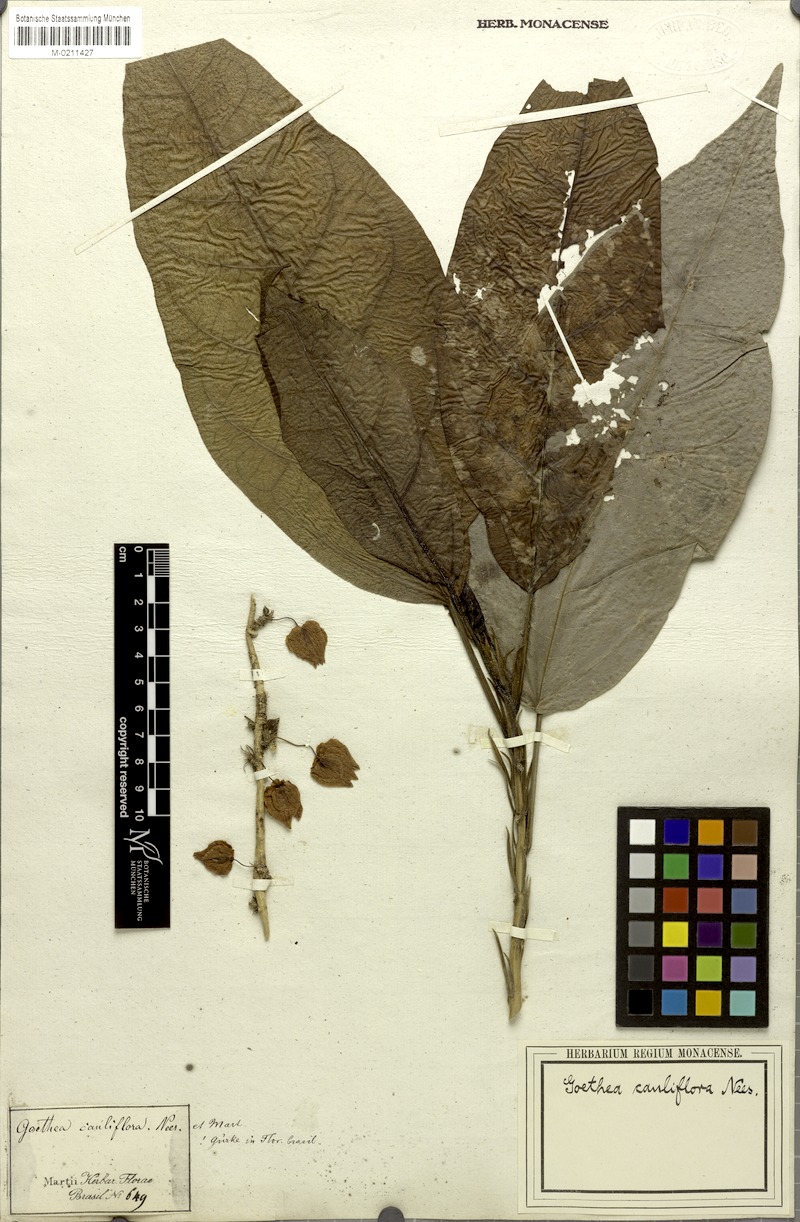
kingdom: Plantae
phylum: Tracheophyta
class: Magnoliopsida
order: Malvales
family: Malvaceae
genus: Pavonia
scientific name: Pavonia cauliflora
